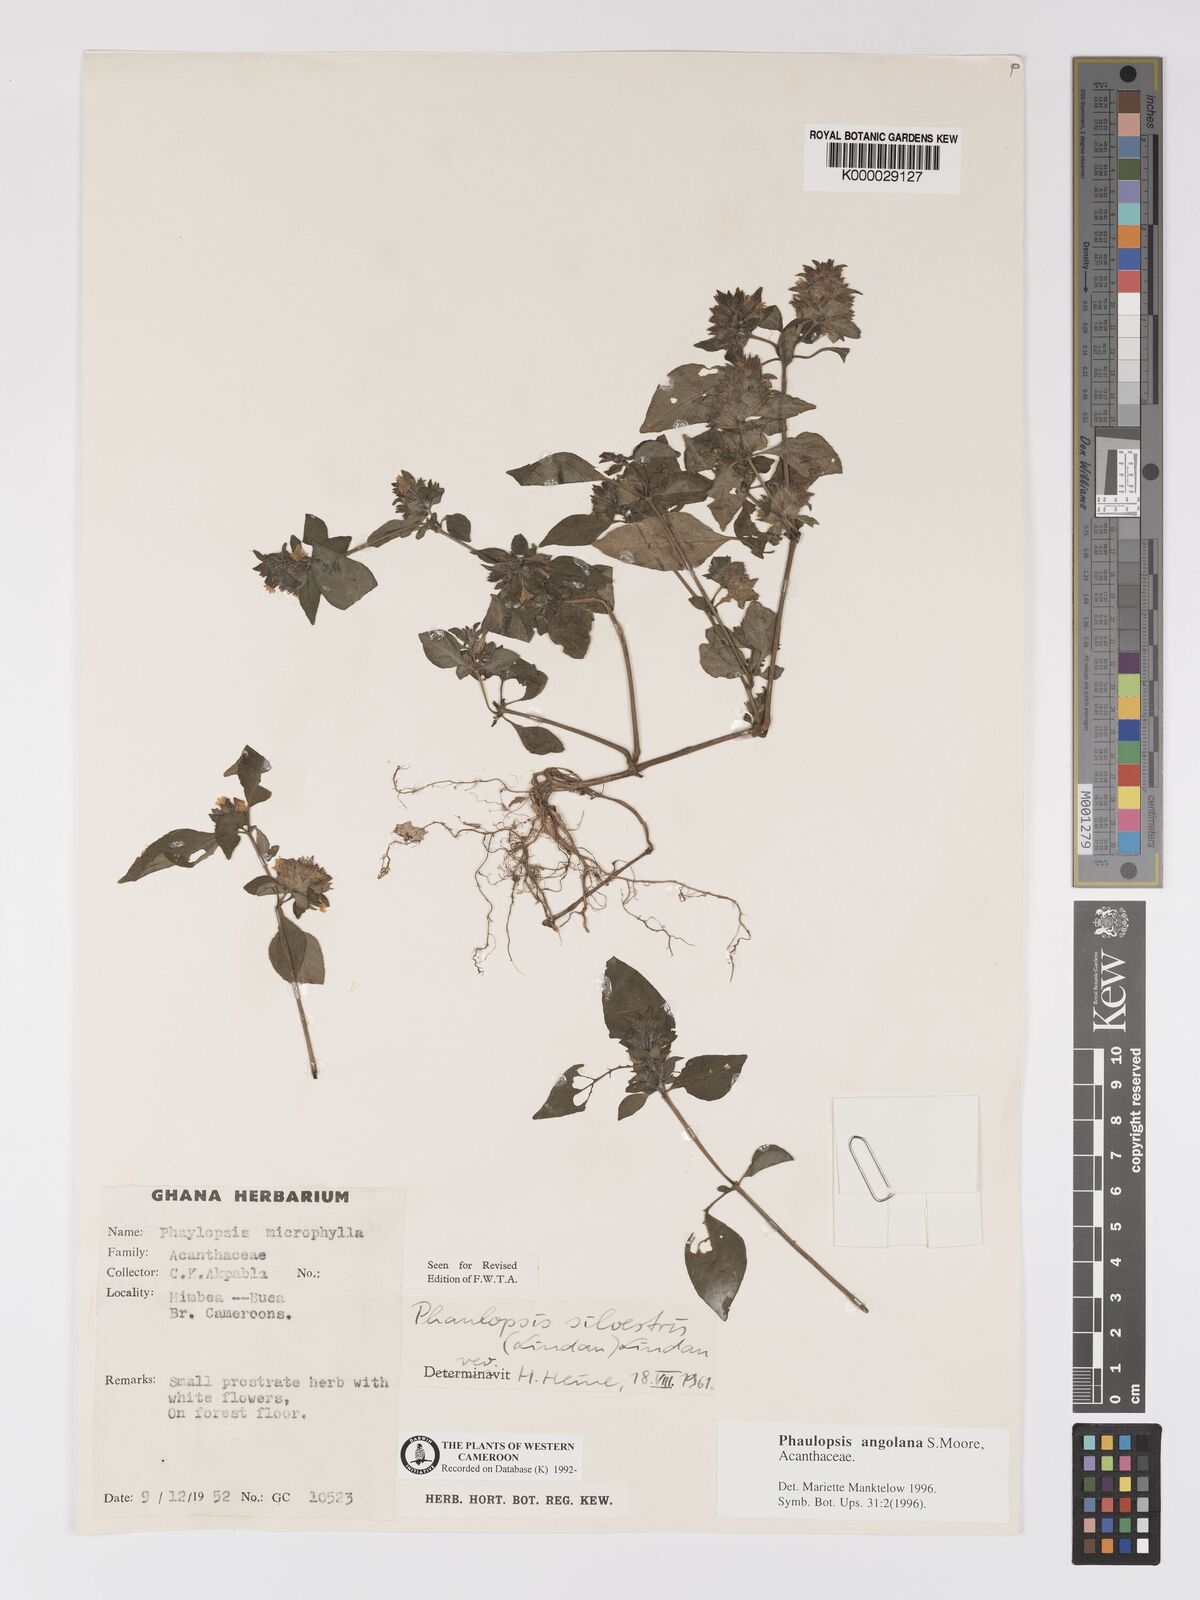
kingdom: Plantae
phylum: Tracheophyta
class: Magnoliopsida
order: Lamiales
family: Acanthaceae
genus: Phaulopsis
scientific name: Phaulopsis angolana
